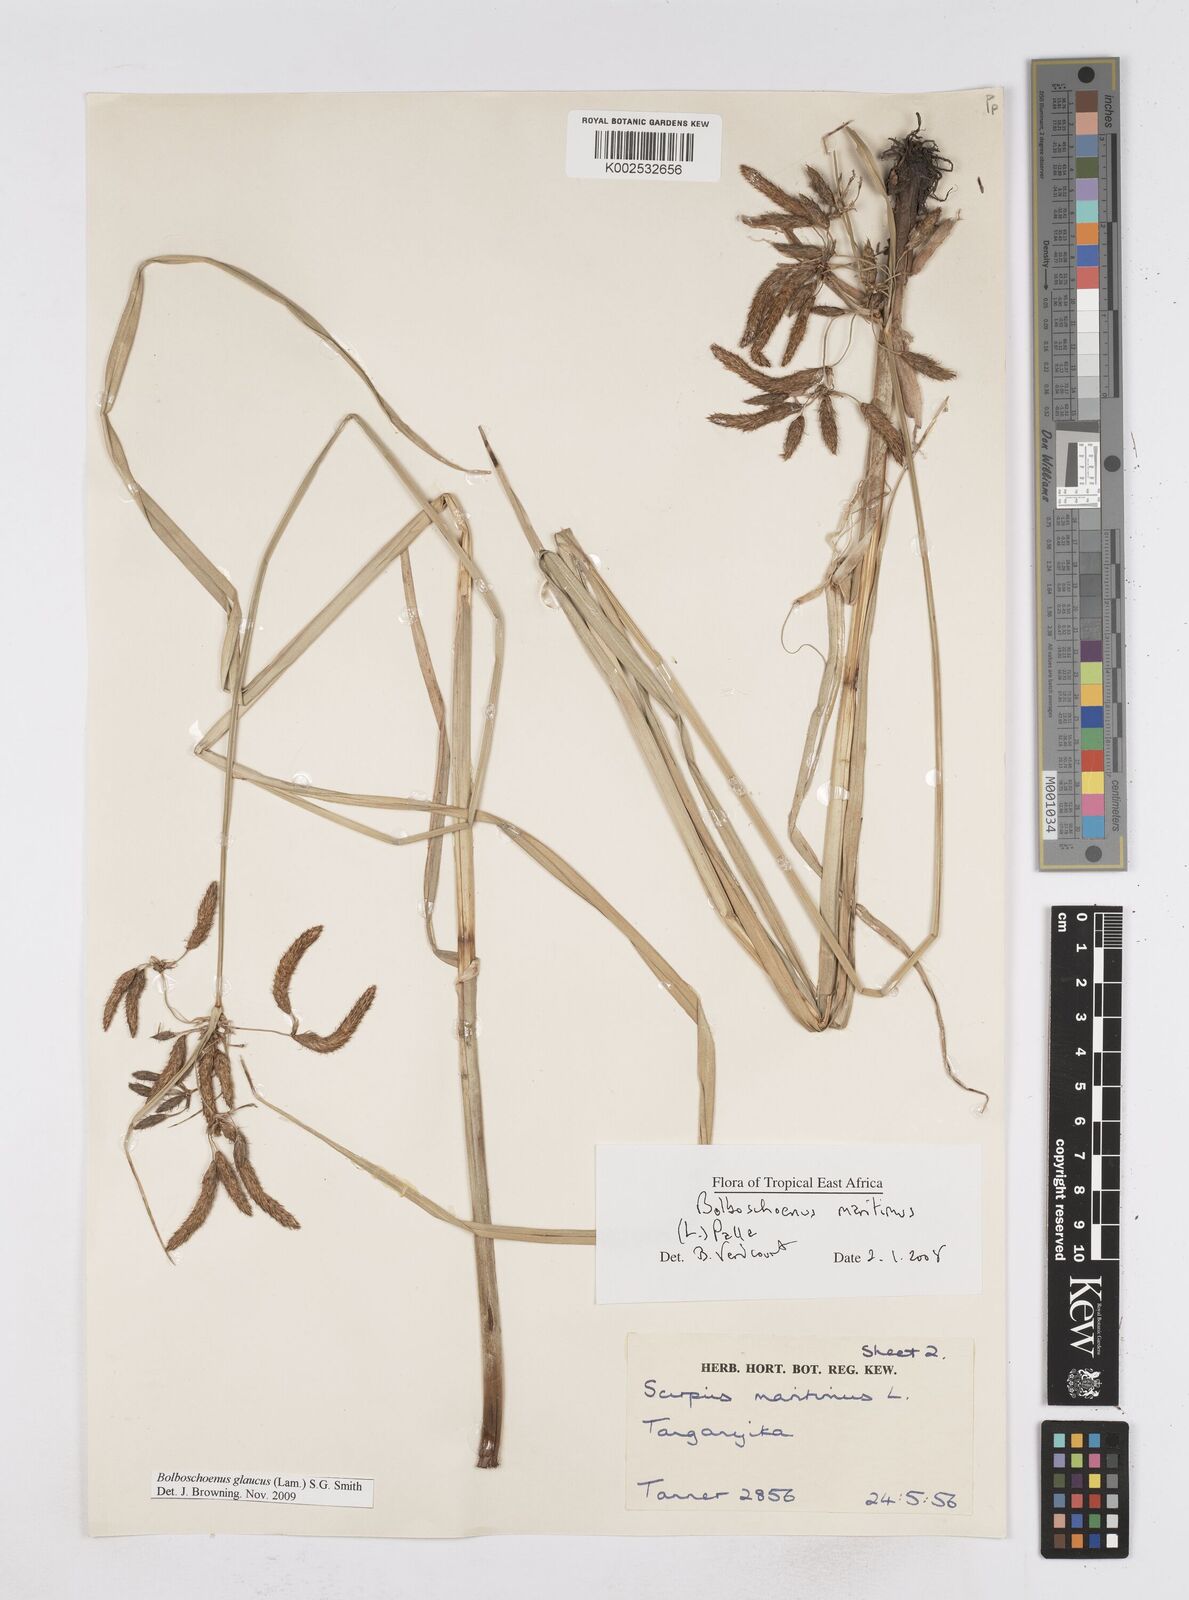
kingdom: Plantae
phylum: Tracheophyta
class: Liliopsida
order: Poales
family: Cyperaceae
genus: Bolboschoenus
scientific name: Bolboschoenus glaucus
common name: Tuberous bulrush
